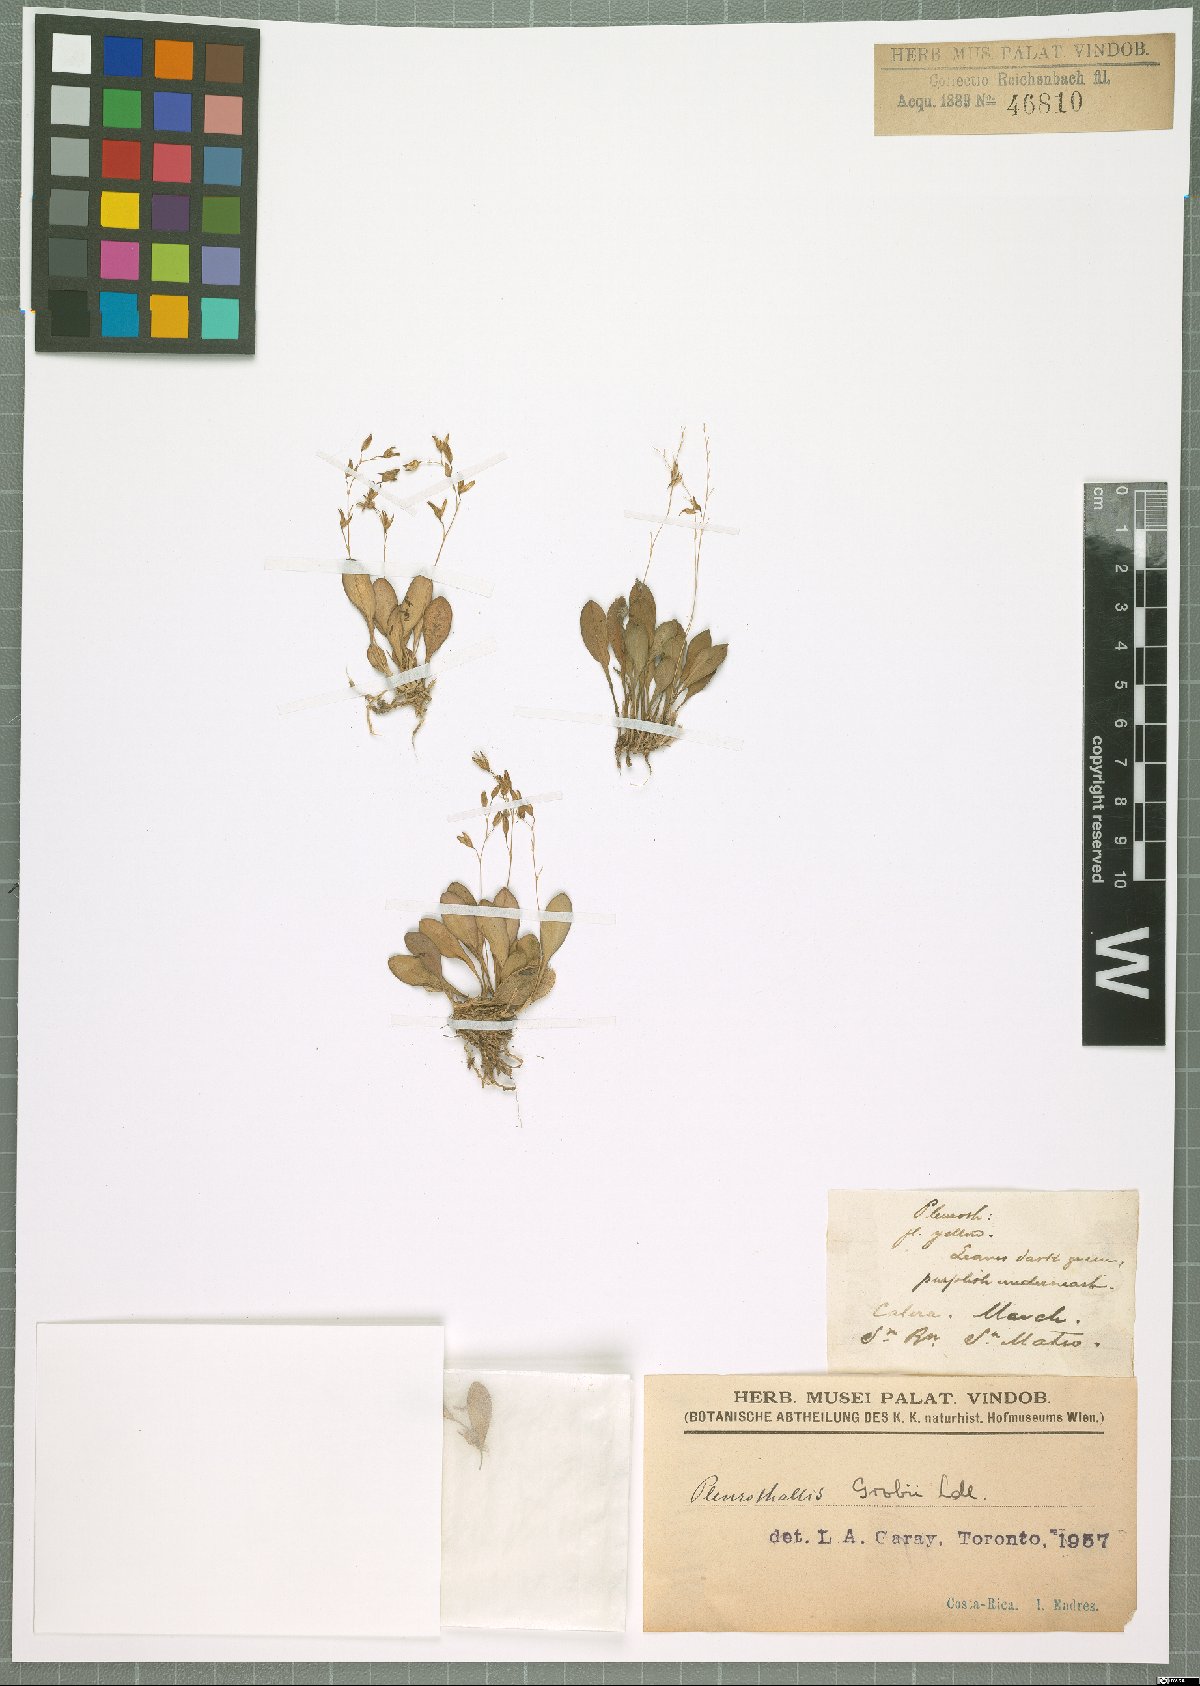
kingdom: Plantae
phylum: Tracheophyta
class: Liliopsida
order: Asparagales
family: Orchidaceae
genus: Specklinia
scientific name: Specklinia grobyi
